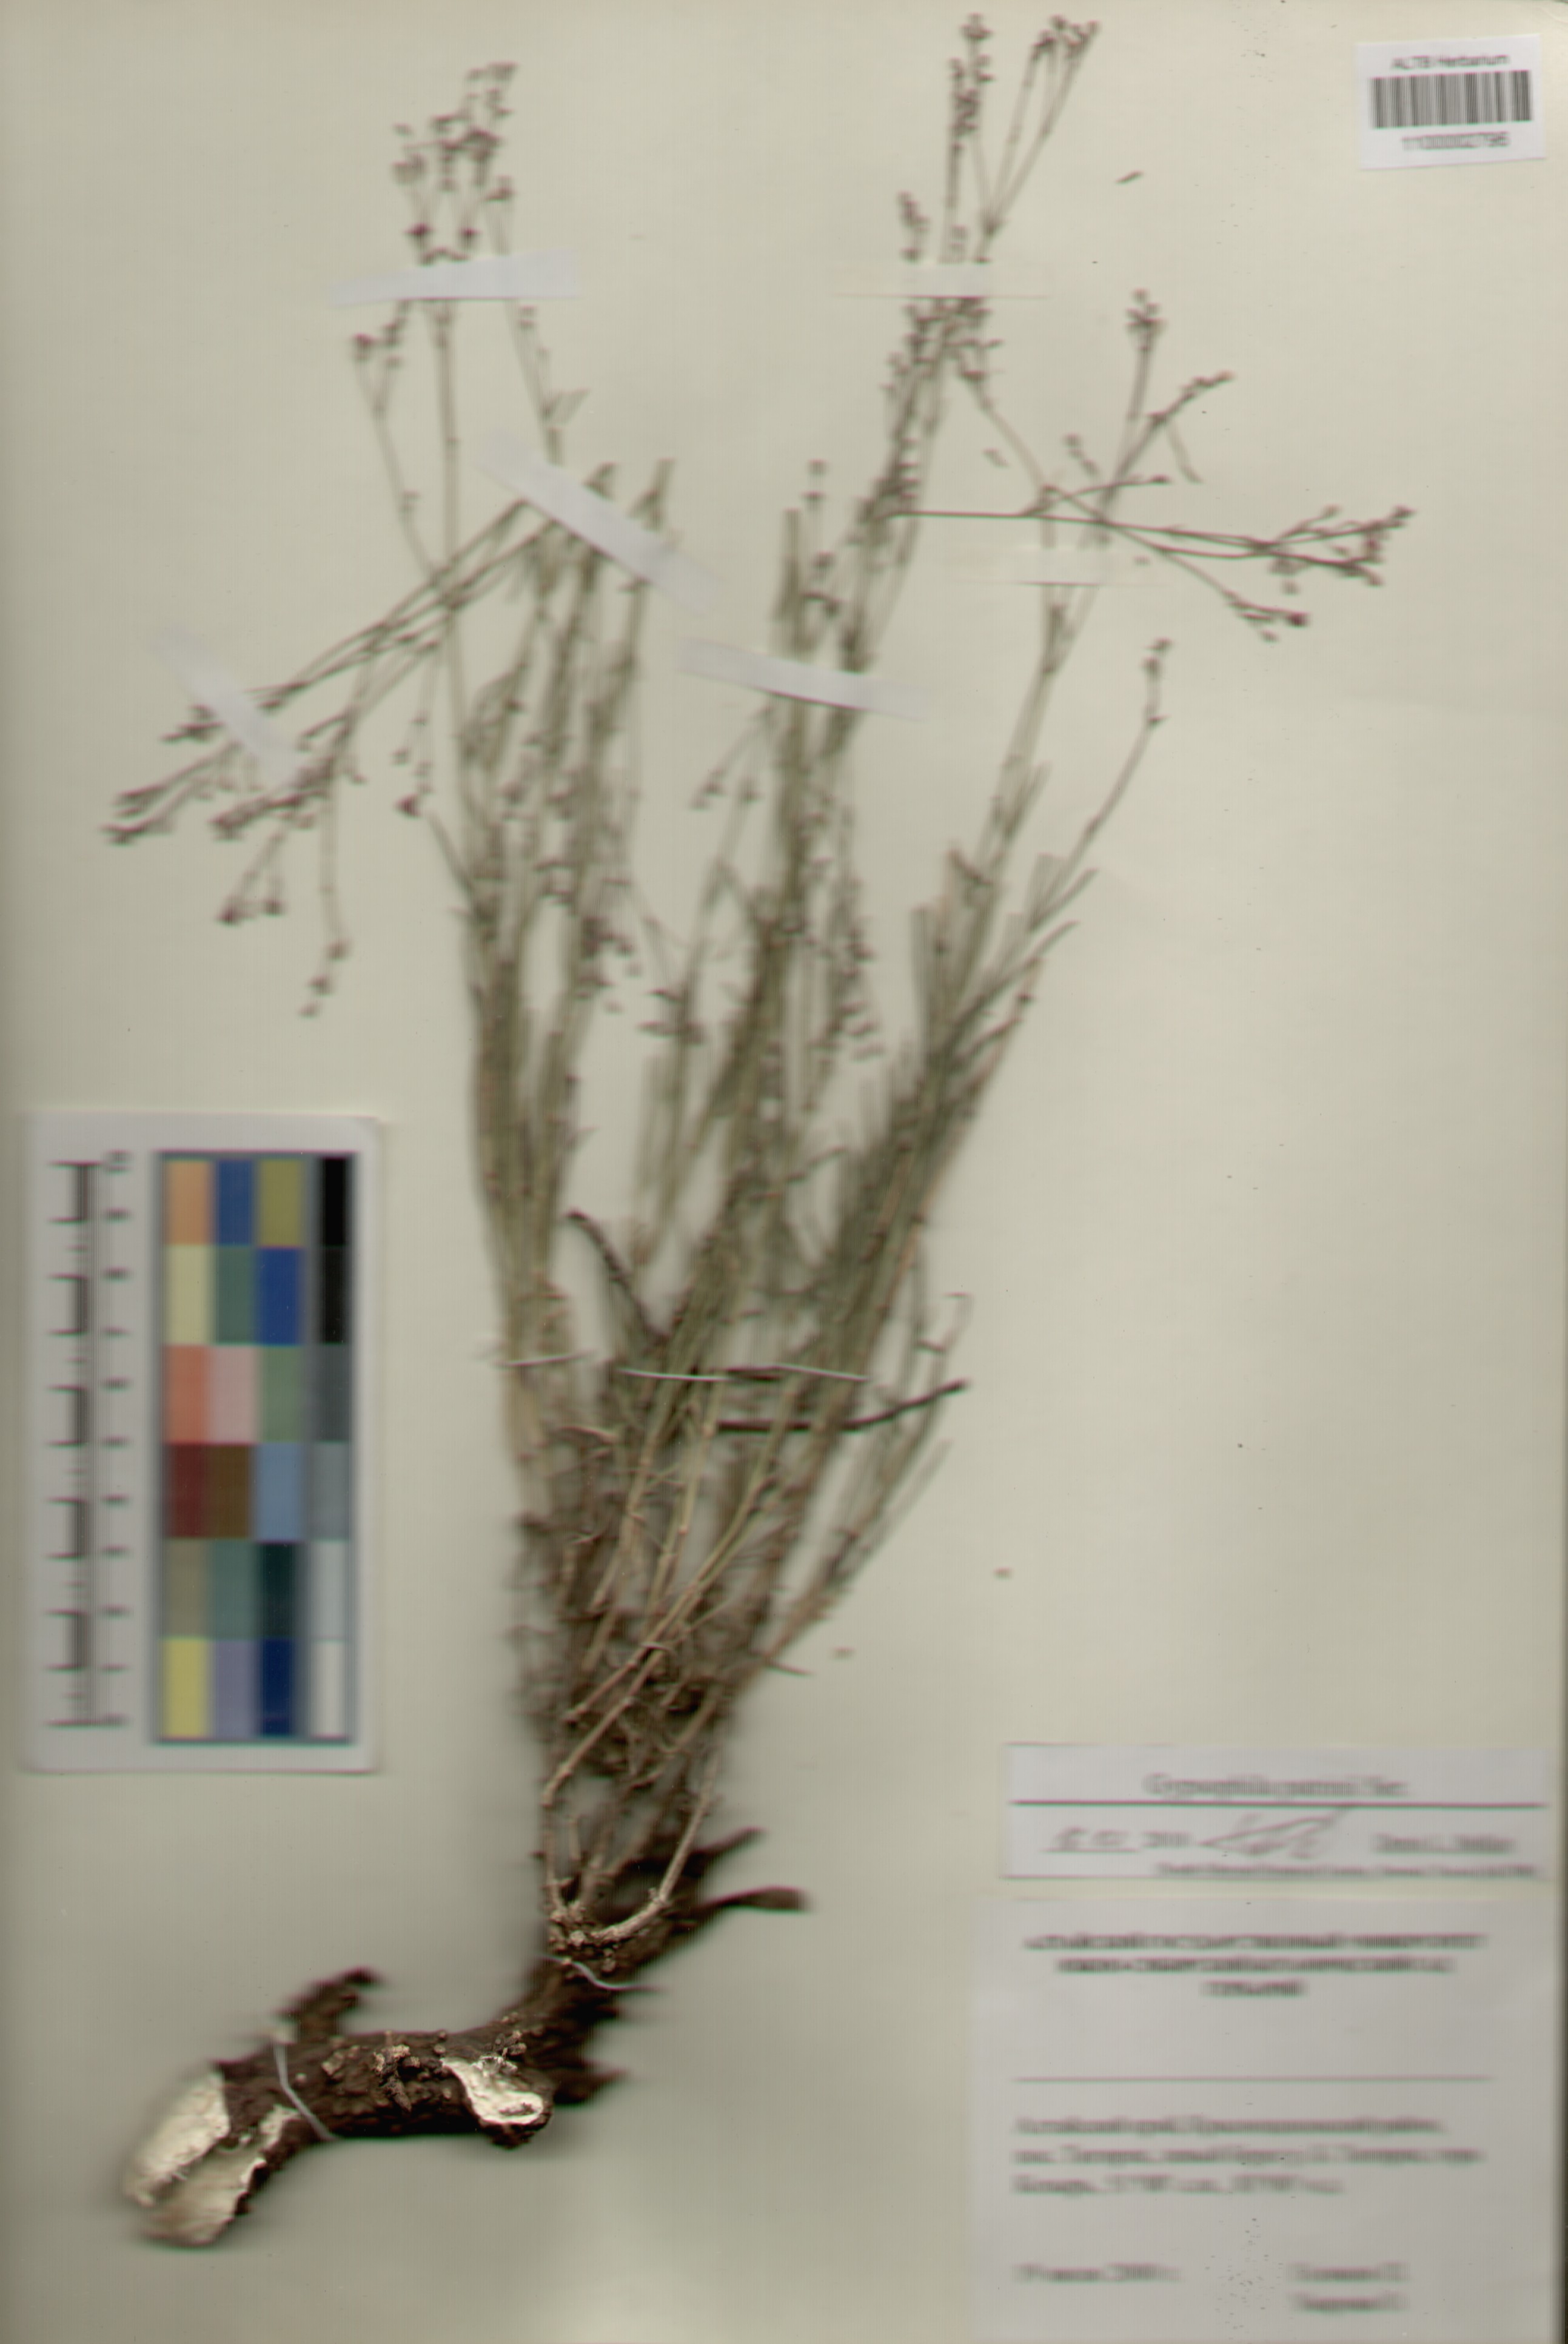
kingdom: Plantae
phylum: Tracheophyta
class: Magnoliopsida
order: Caryophyllales
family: Caryophyllaceae
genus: Gypsophila
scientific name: Gypsophila patrinii
